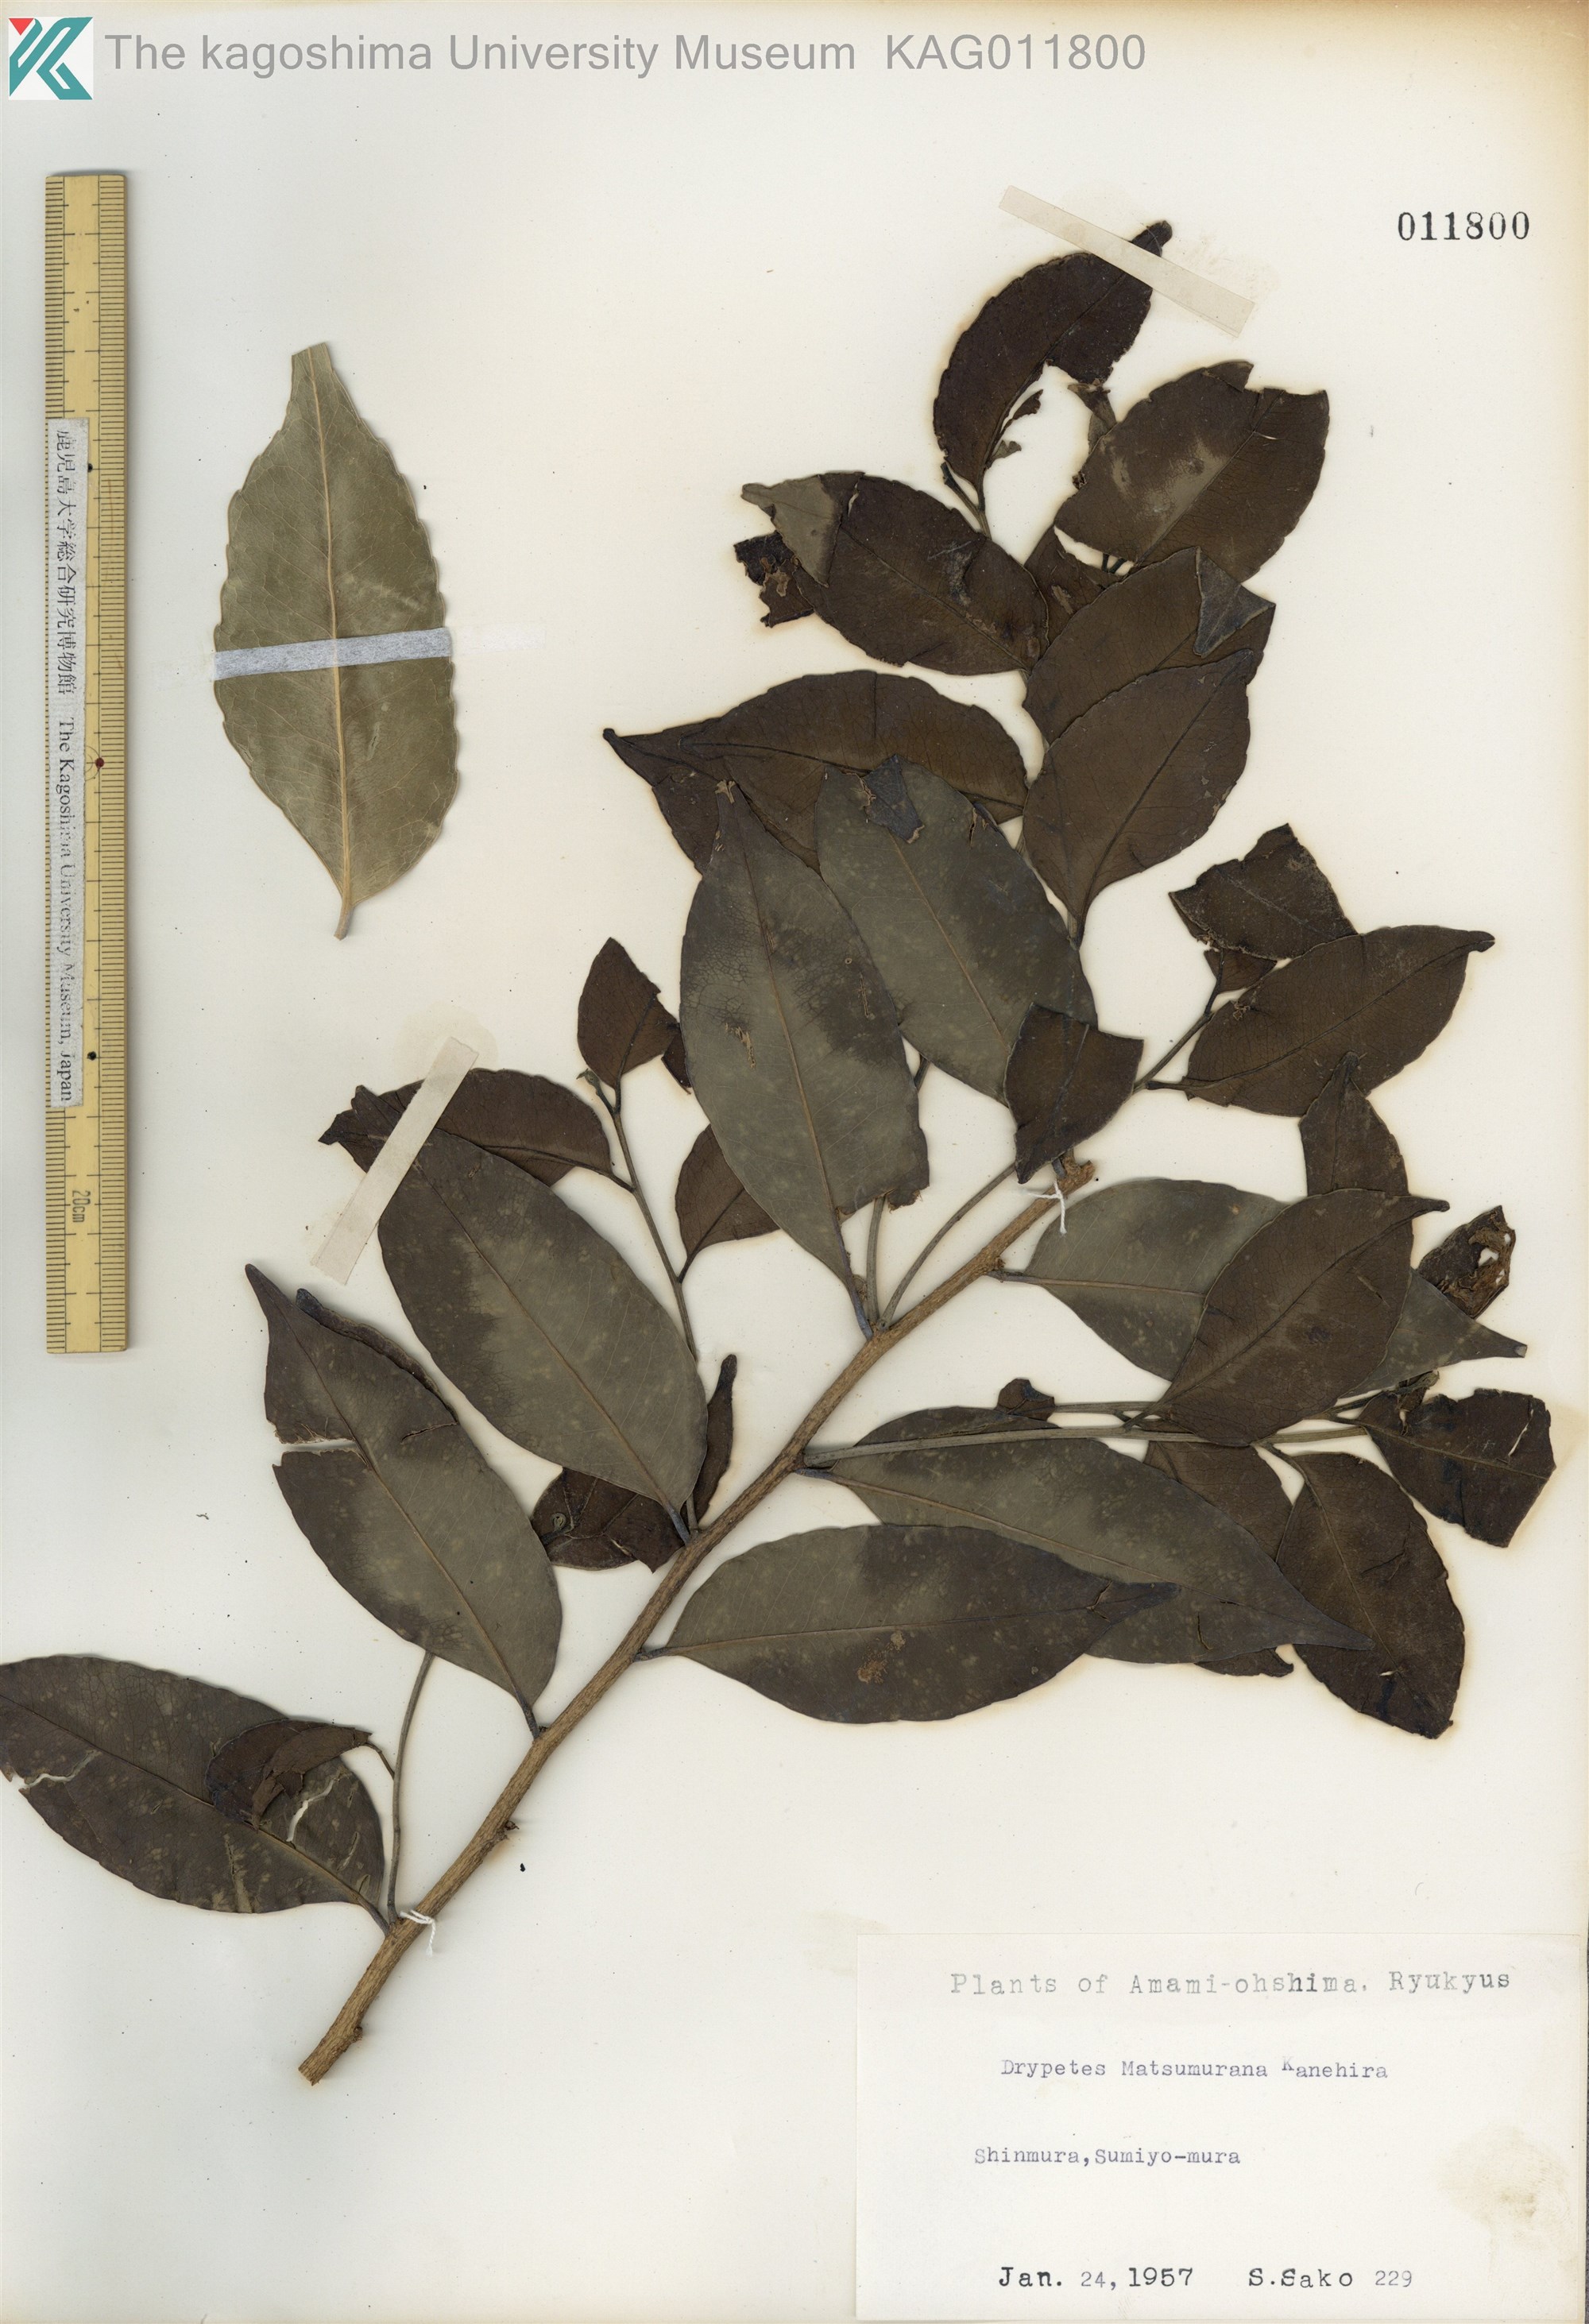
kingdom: Plantae
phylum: Tracheophyta
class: Magnoliopsida
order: Malpighiales
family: Putranjivaceae
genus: Putranjiva
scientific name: Putranjiva matsumurae
